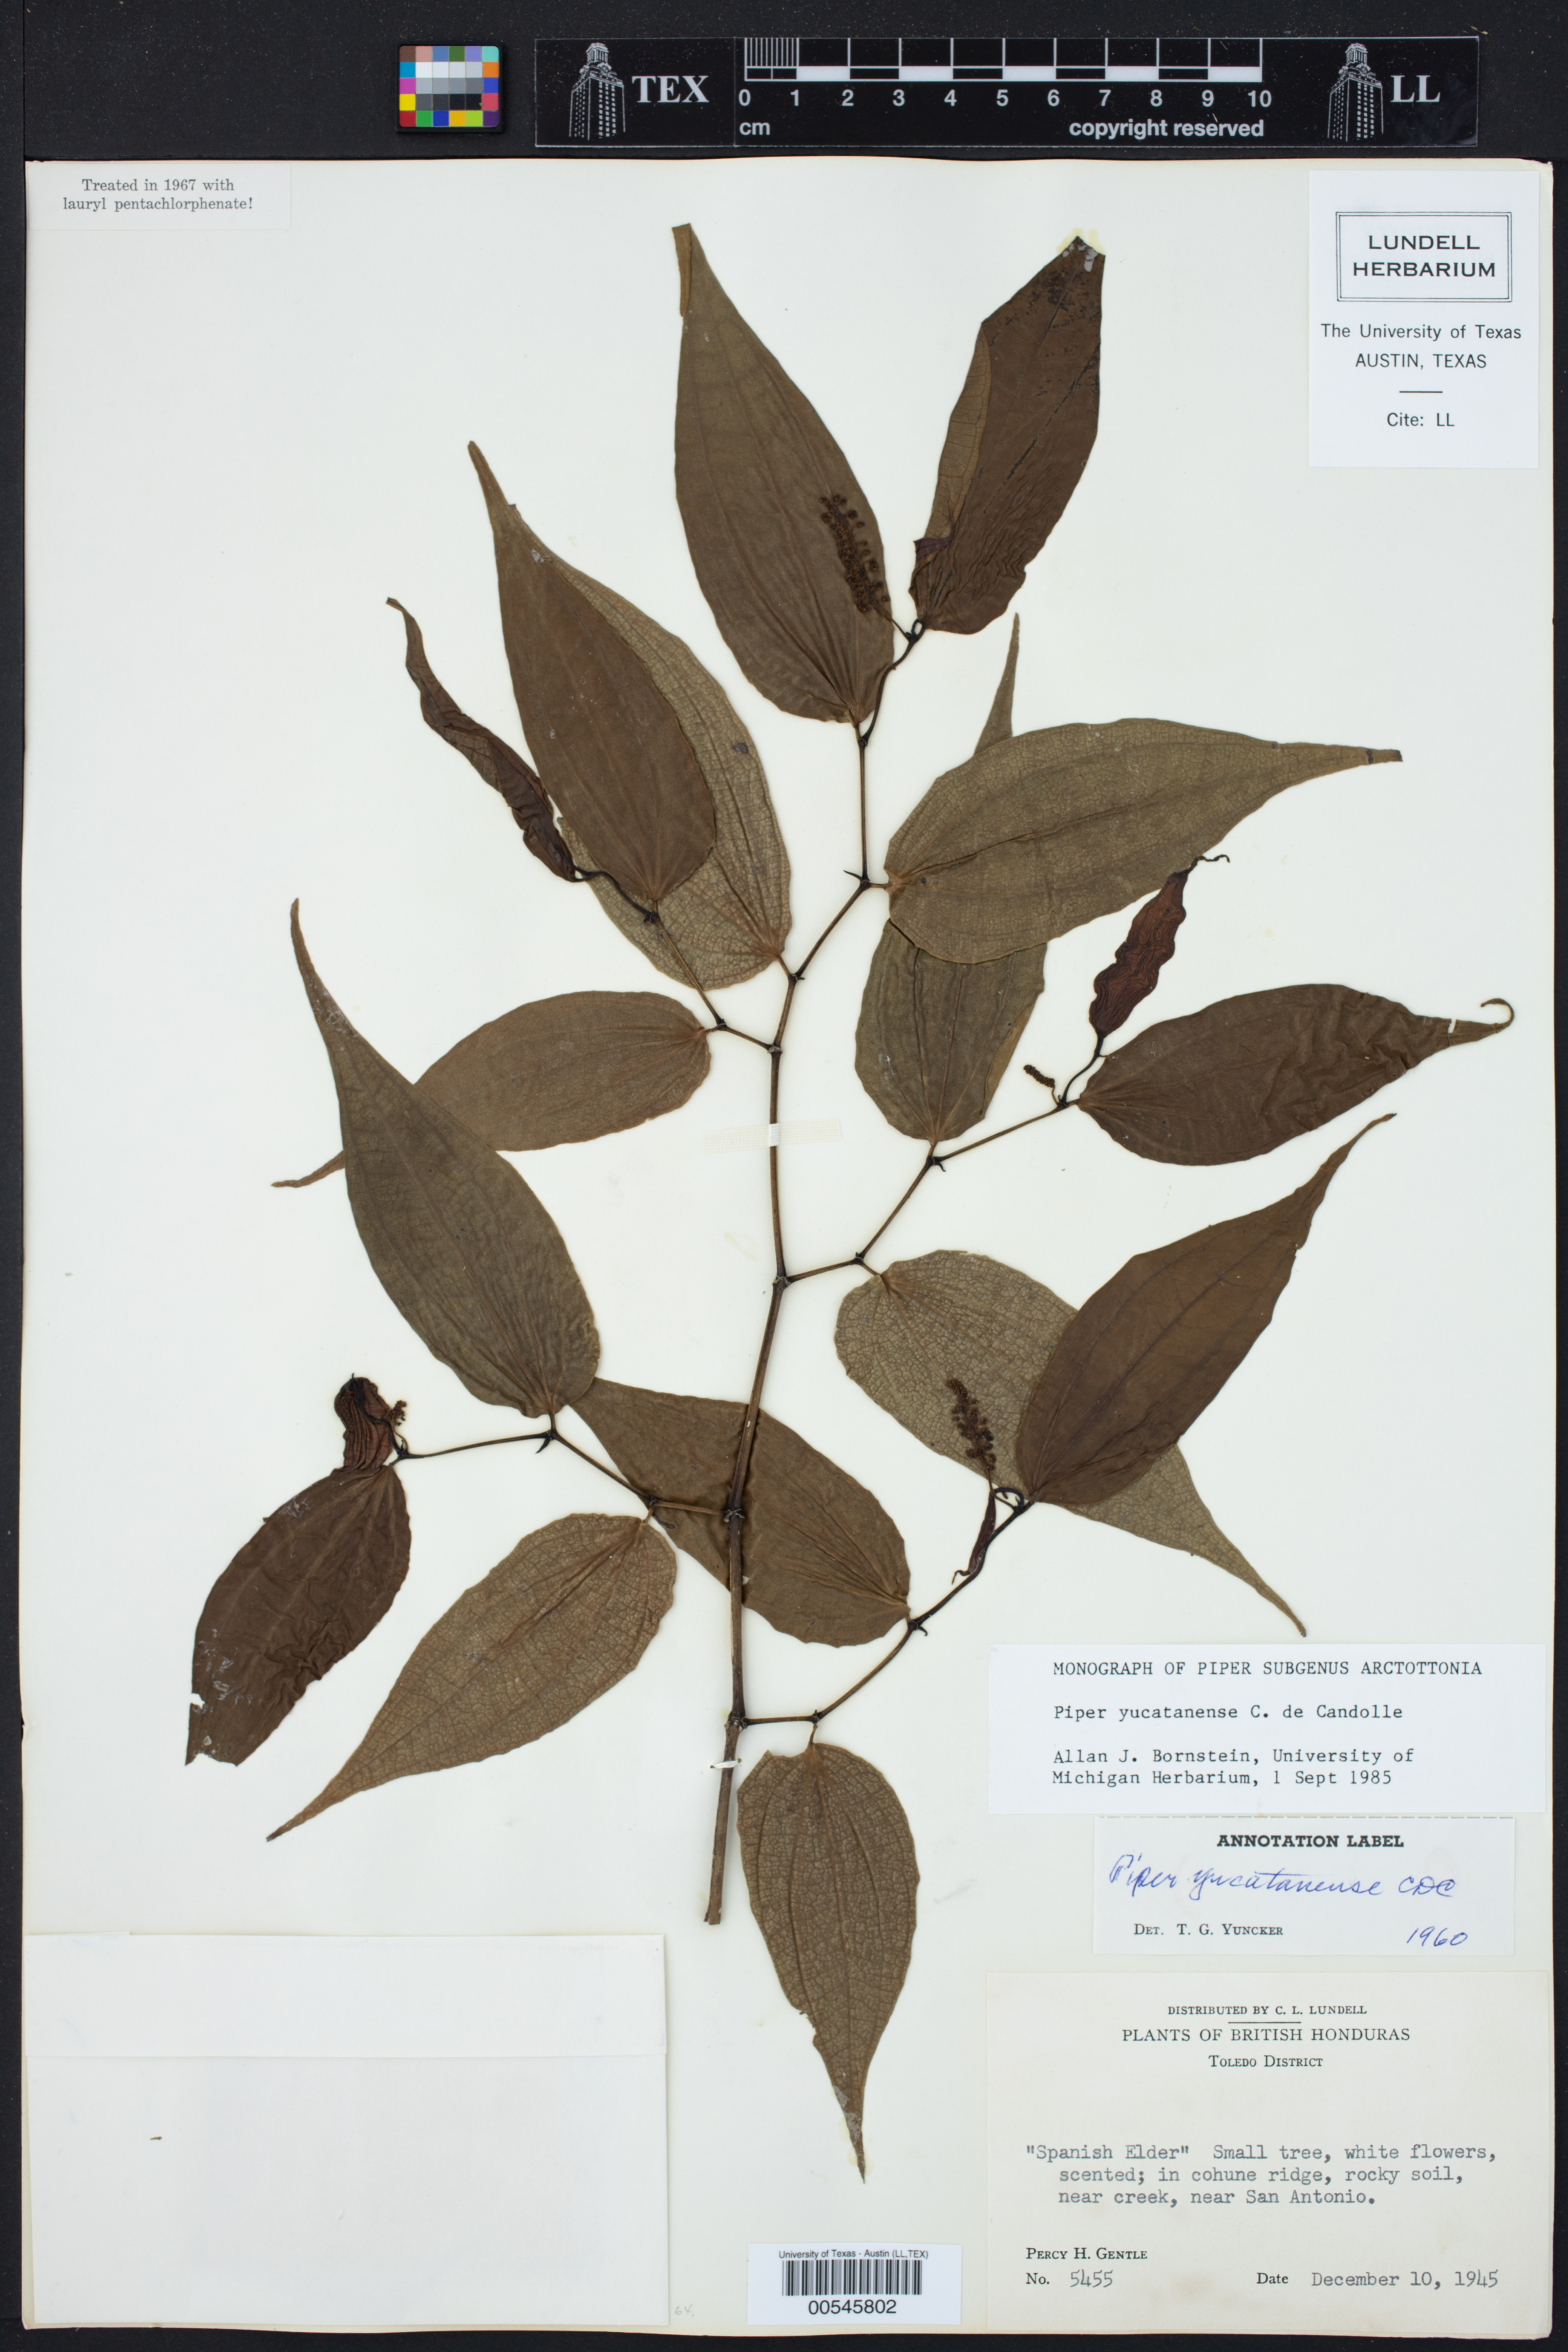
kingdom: Plantae
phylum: Tracheophyta
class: Magnoliopsida
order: Piperales
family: Piperaceae
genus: Piper
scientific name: Piper yucatanense
